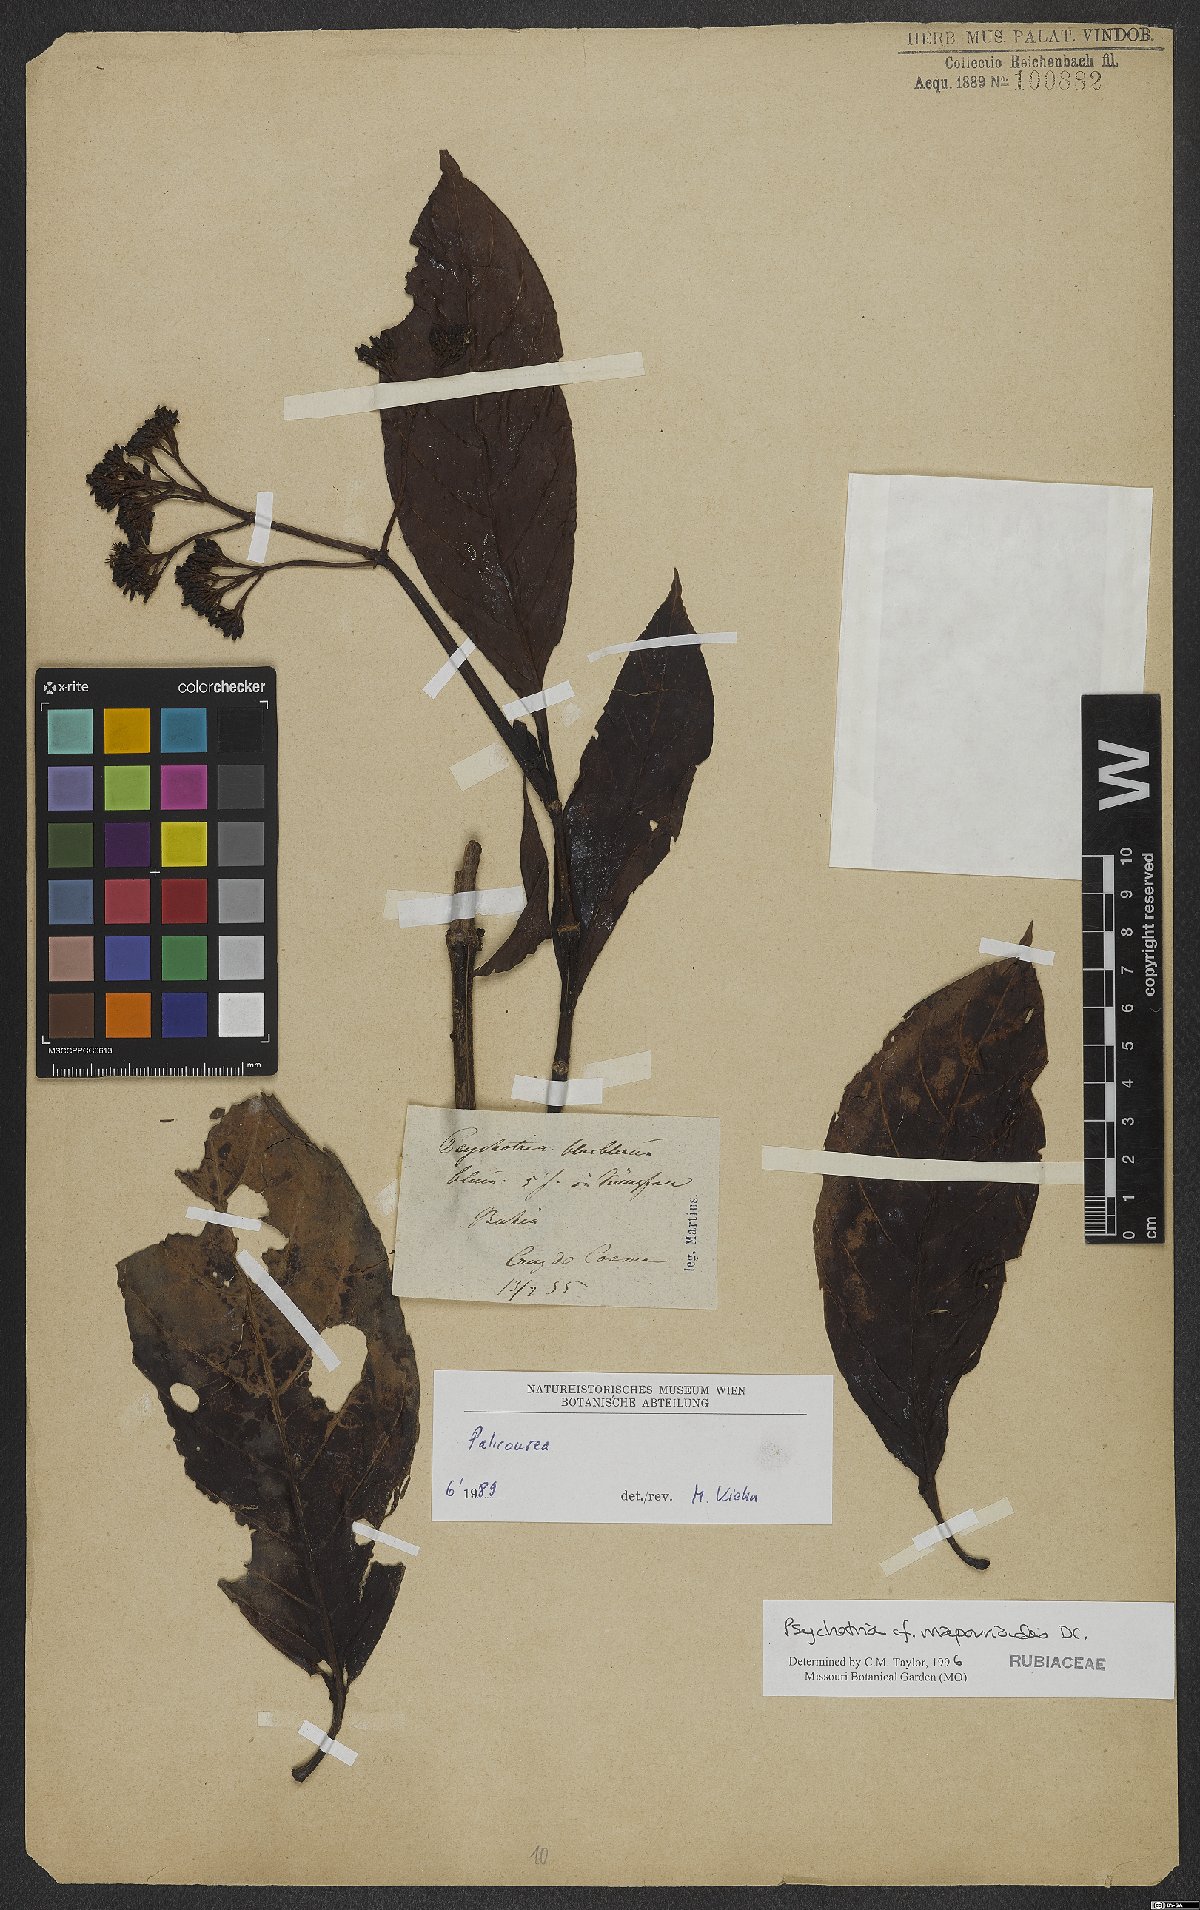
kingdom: Plantae
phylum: Tracheophyta
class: Magnoliopsida
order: Gentianales
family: Rubiaceae
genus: Psychotria
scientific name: Psychotria pedunculosa
